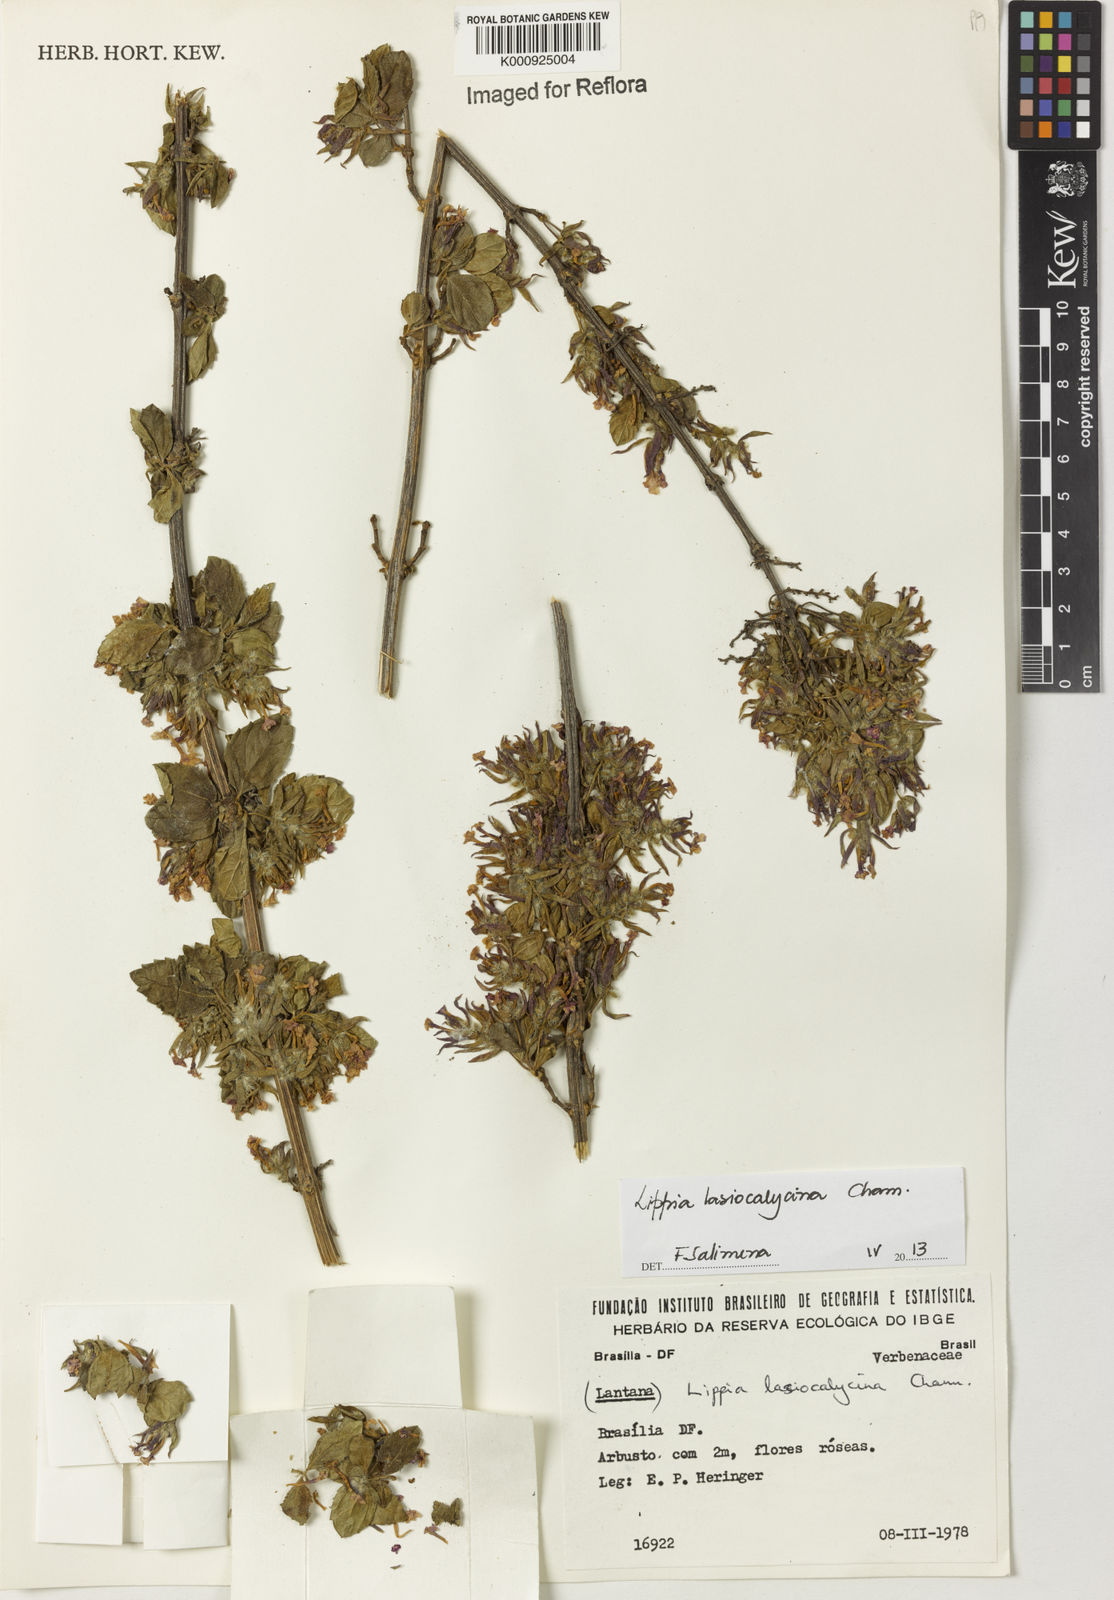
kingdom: Plantae
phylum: Tracheophyta
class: Magnoliopsida
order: Lamiales
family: Verbenaceae
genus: Lippia
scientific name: Lippia lasiocalycina
